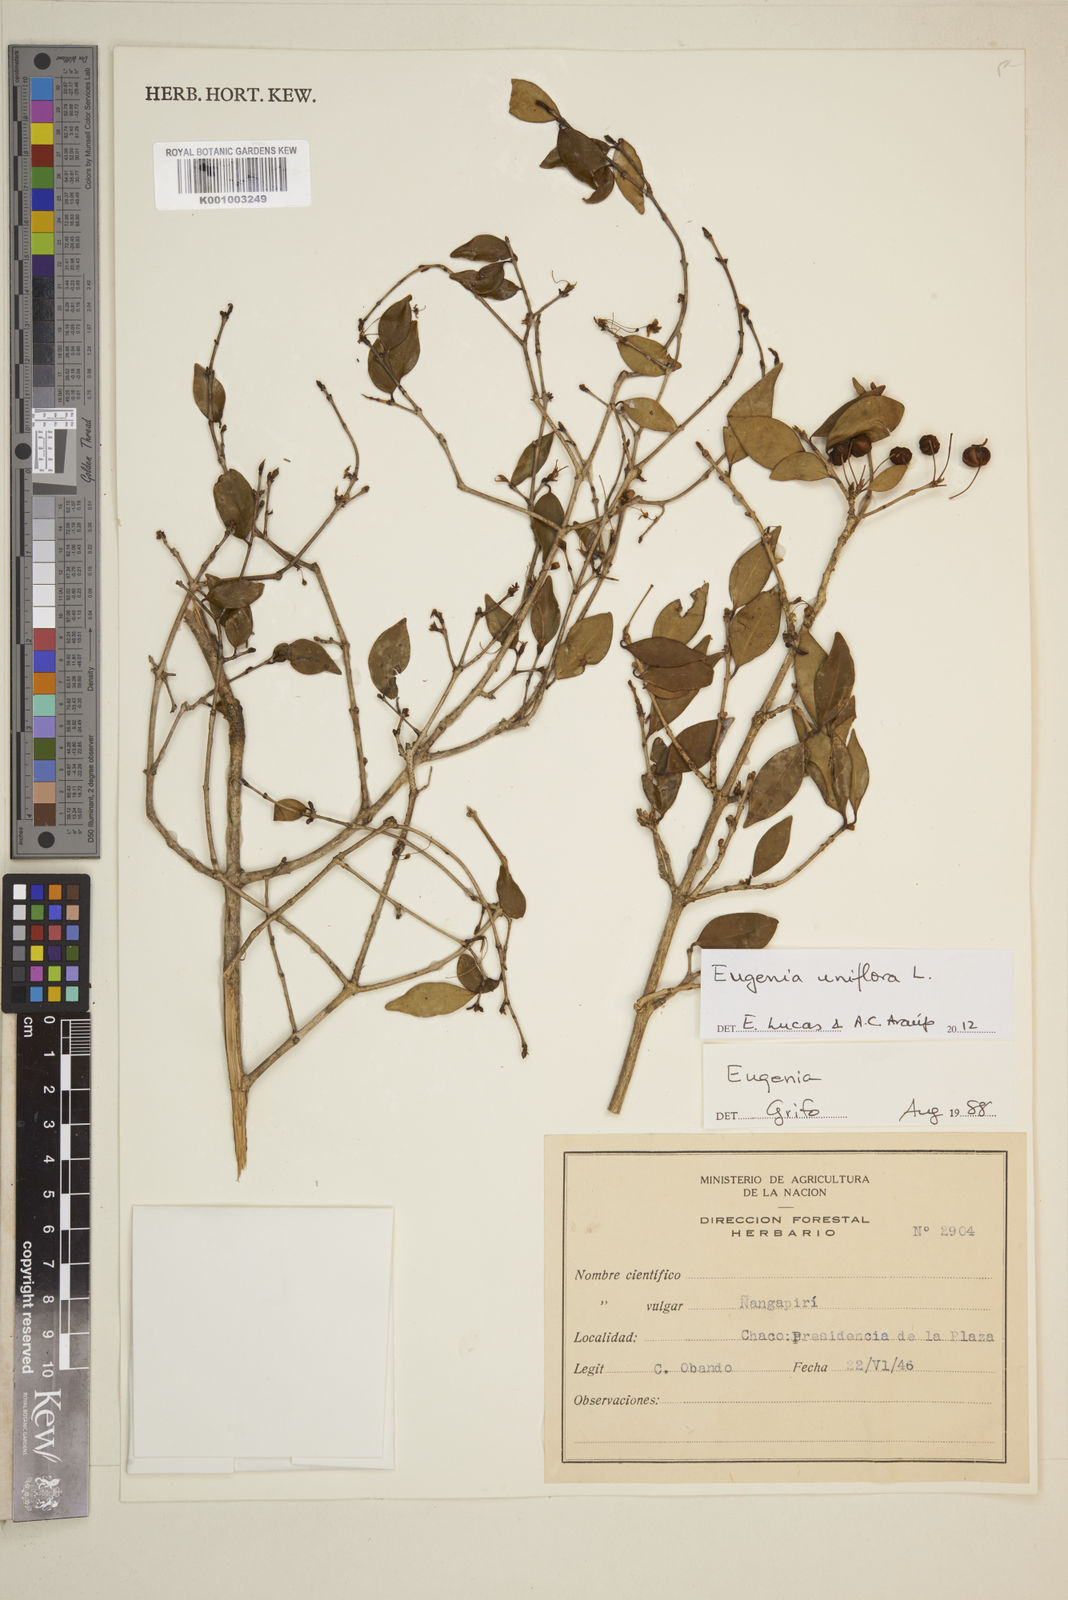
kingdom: Plantae
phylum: Tracheophyta
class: Magnoliopsida
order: Myrtales
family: Myrtaceae
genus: Eugenia
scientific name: Eugenia uniflora
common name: Surinam cherry
